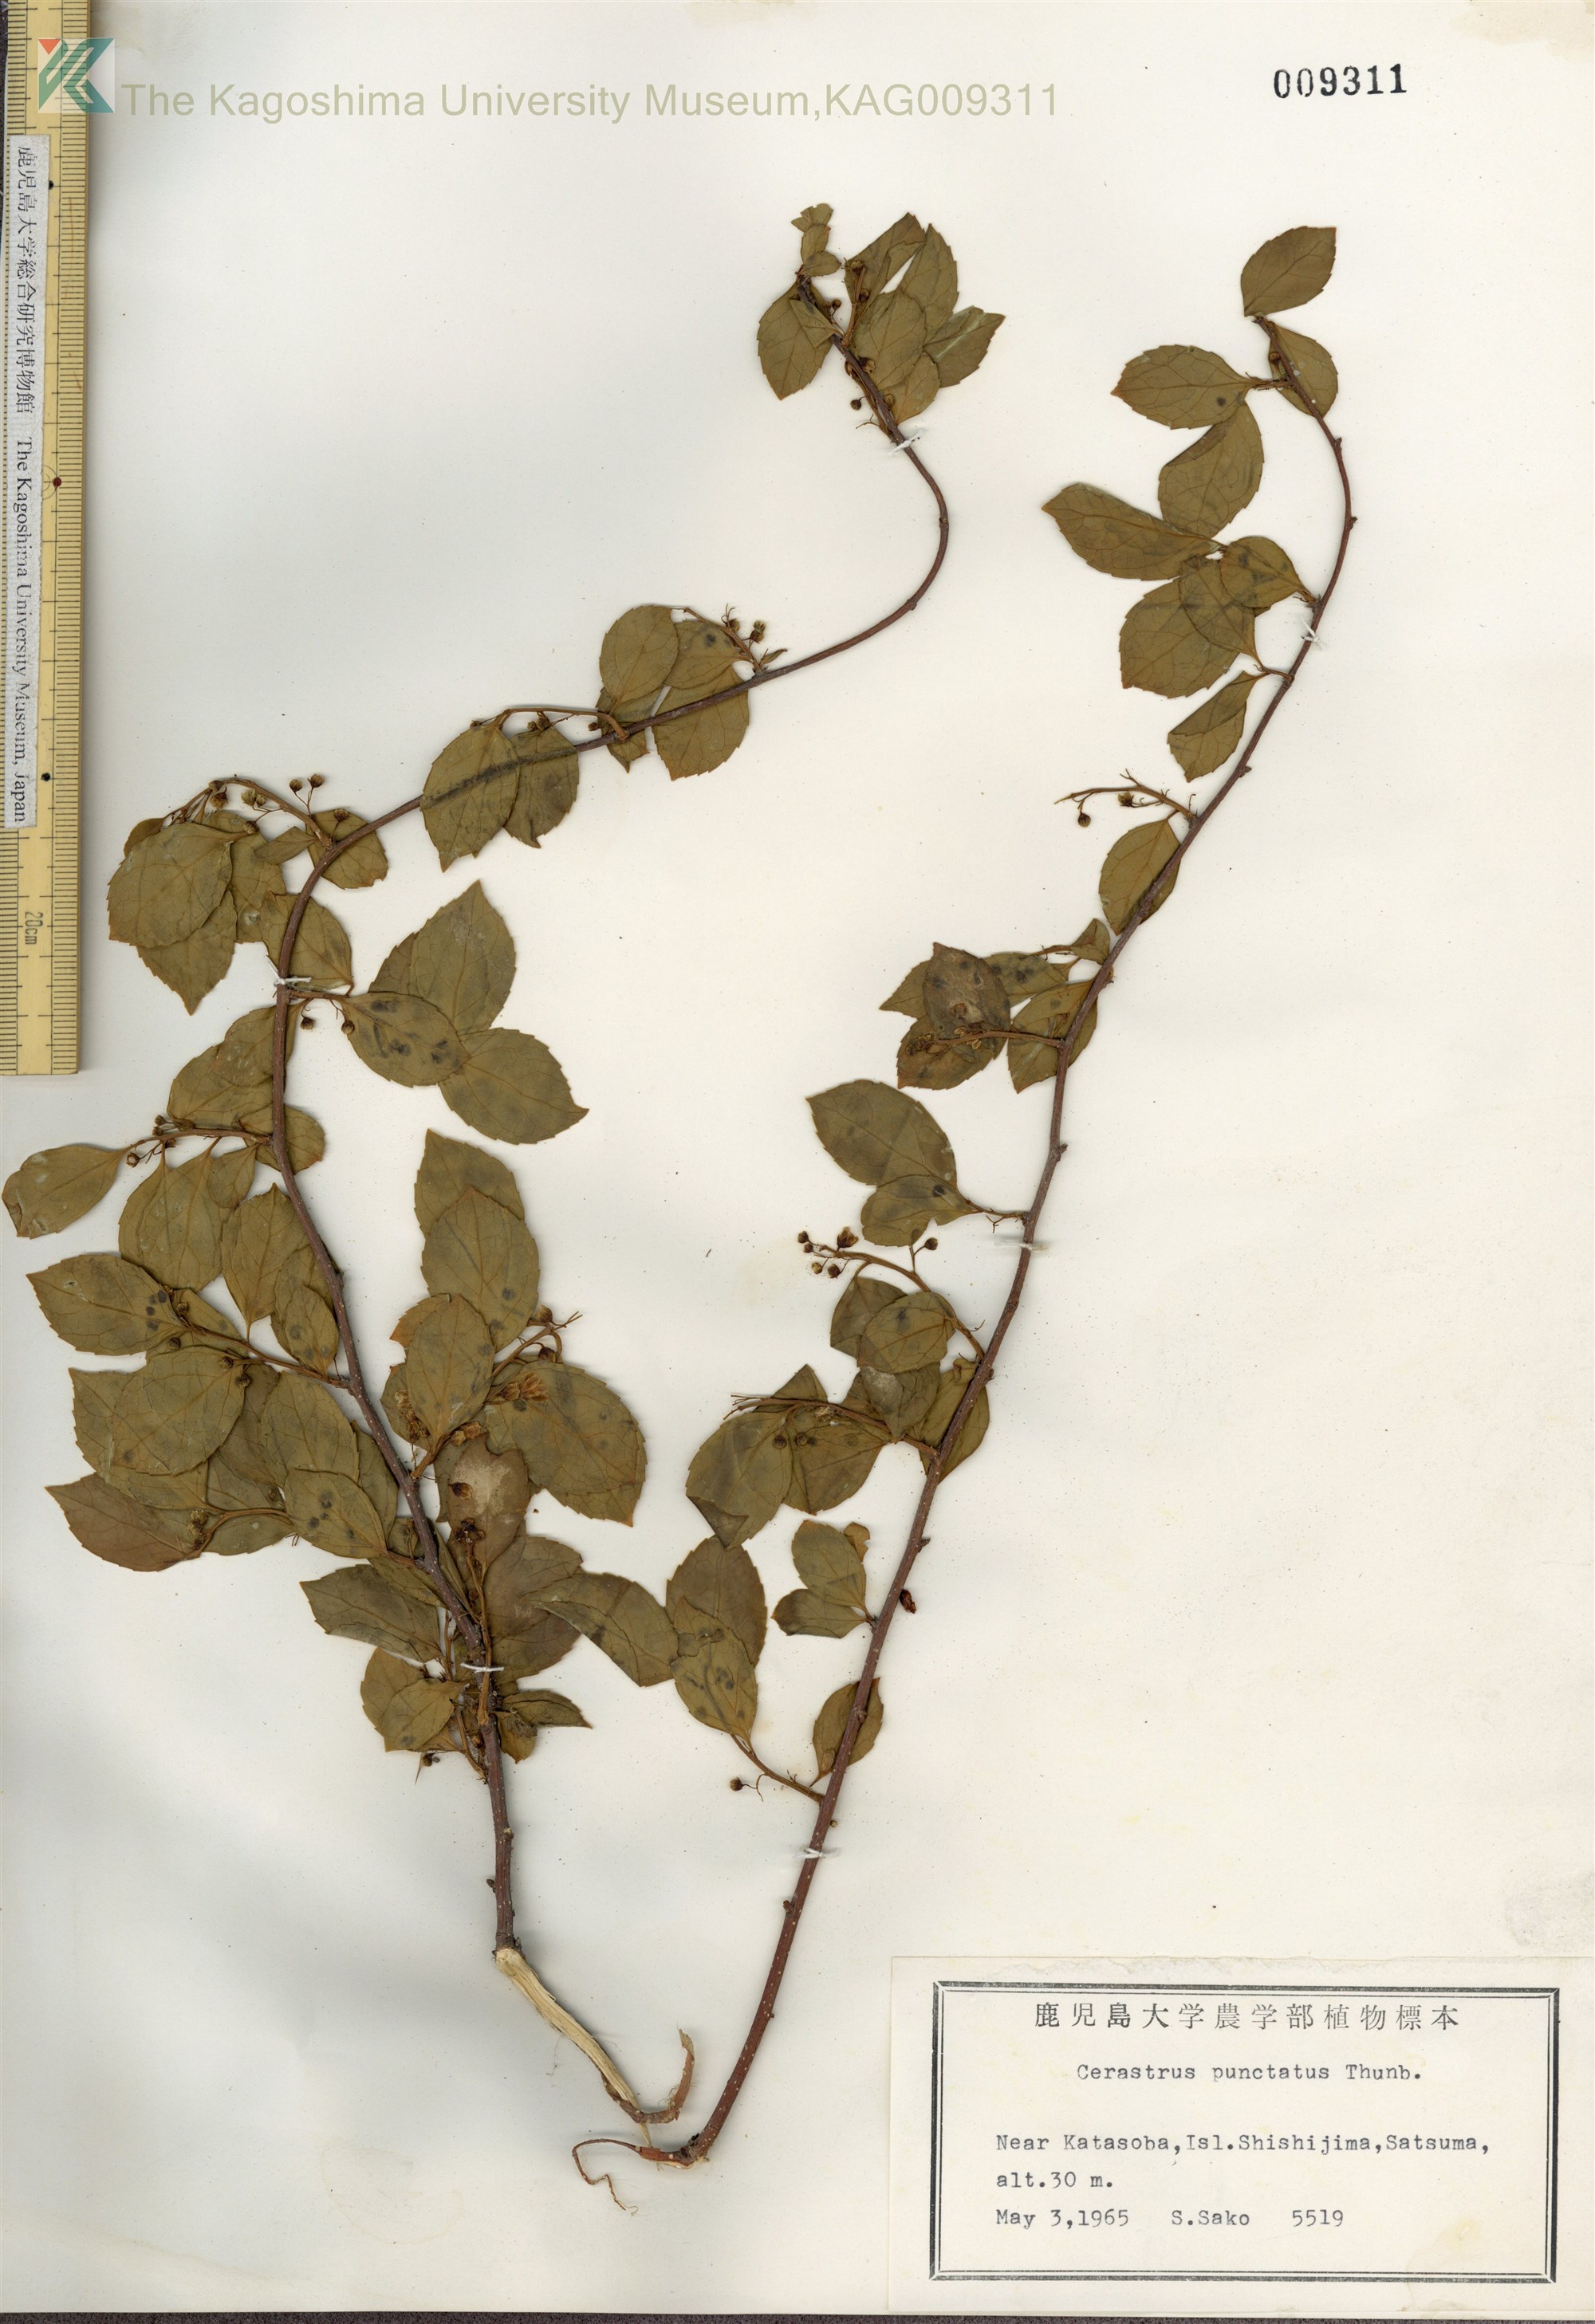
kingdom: Plantae
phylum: Tracheophyta
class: Magnoliopsida
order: Celastrales
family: Celastraceae
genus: Celastrus
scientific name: Celastrus punctatus
